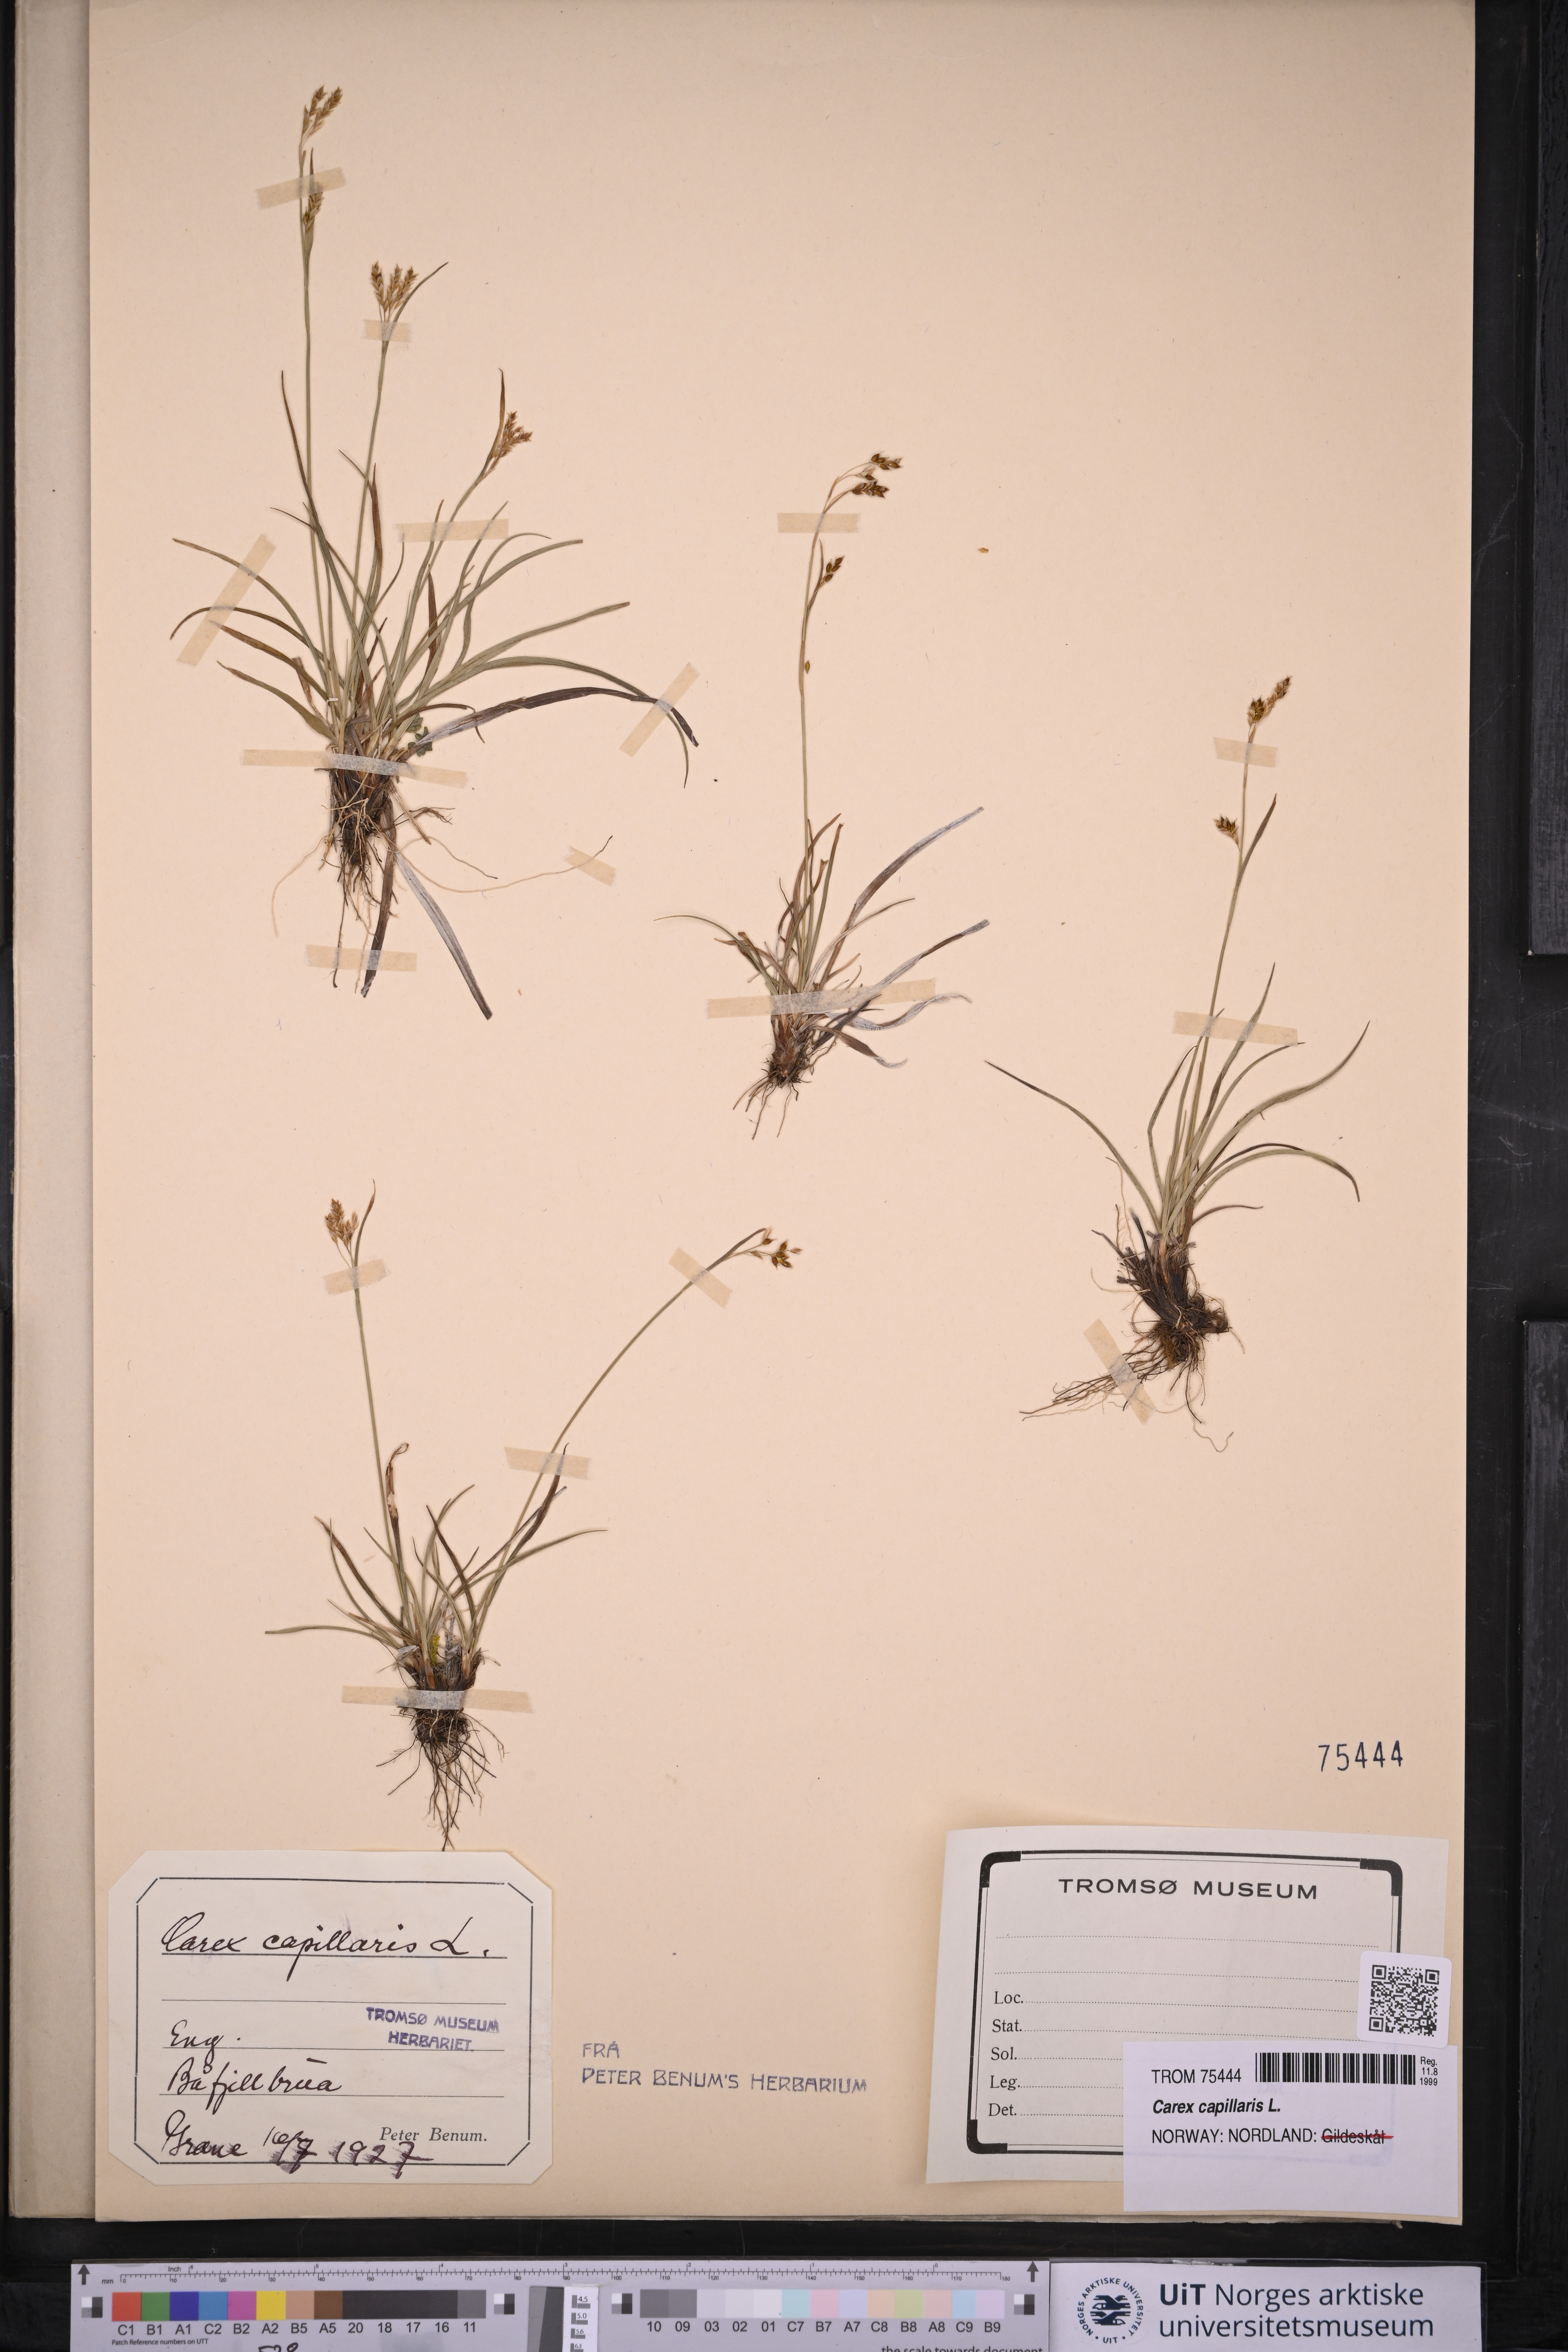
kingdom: Plantae
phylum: Tracheophyta
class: Liliopsida
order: Poales
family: Cyperaceae
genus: Carex
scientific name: Carex capillaris
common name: Hair sedge
